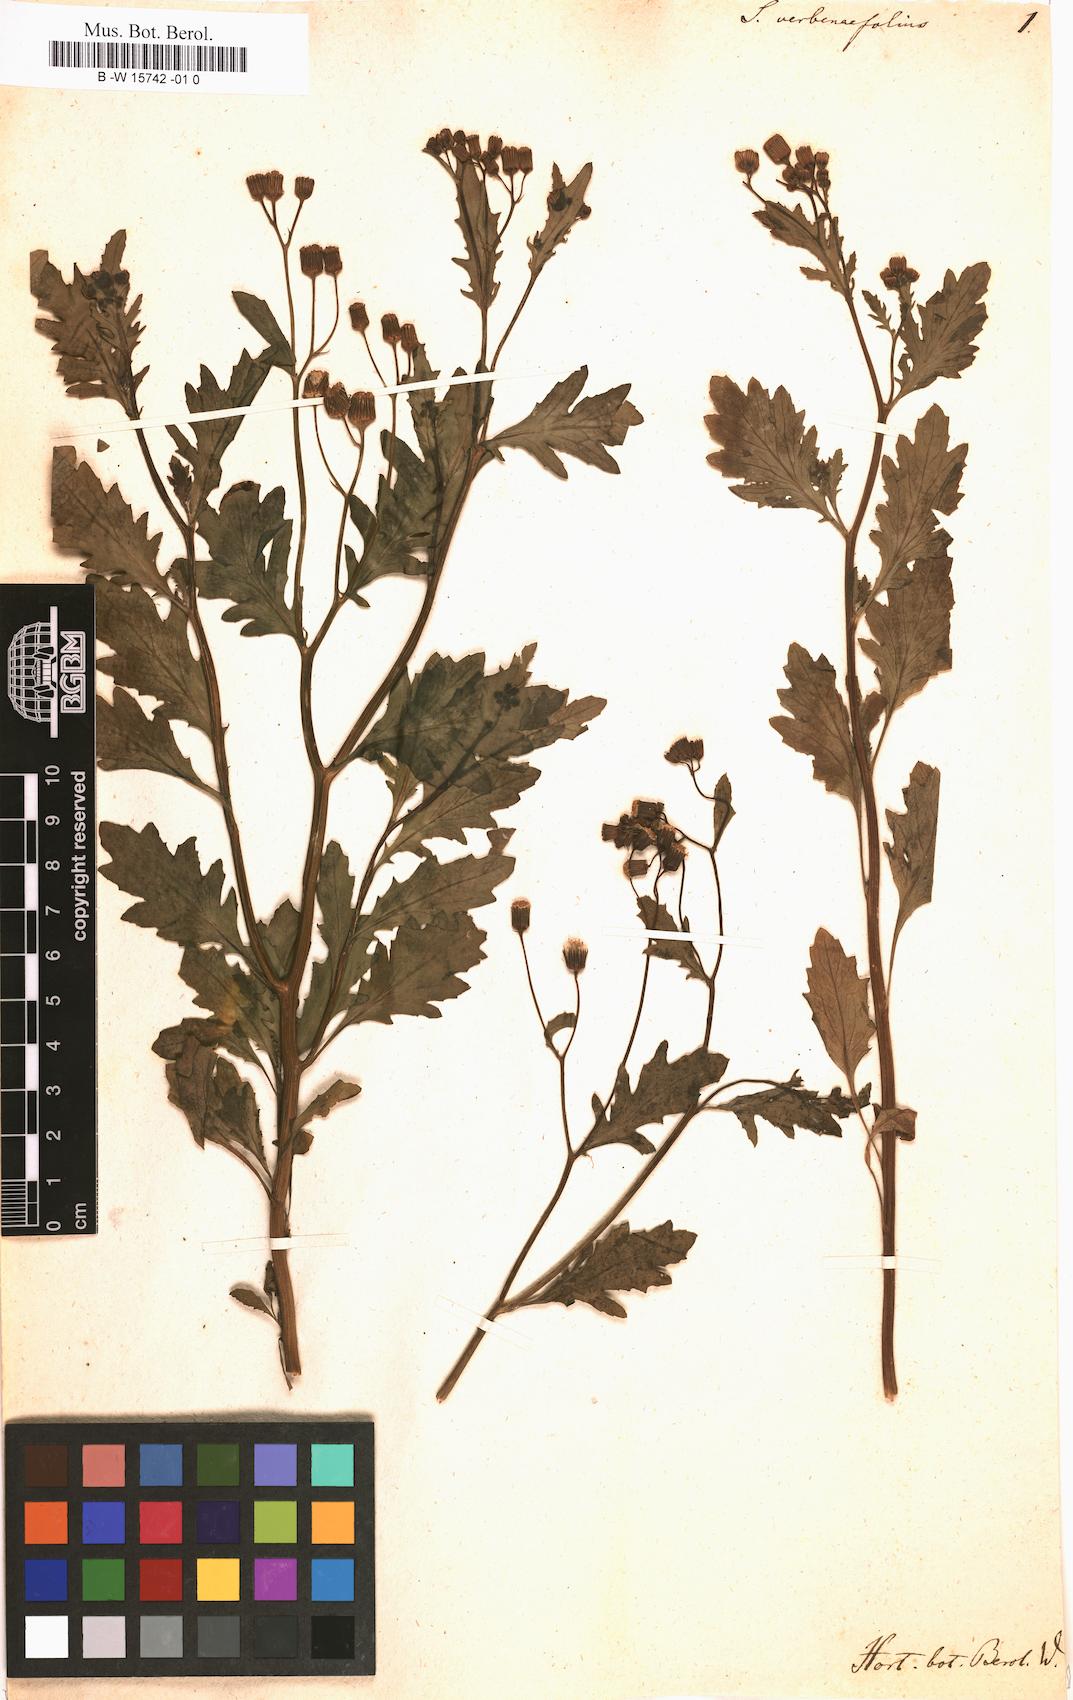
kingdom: Plantae
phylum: Tracheophyta
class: Magnoliopsida
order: Asterales
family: Asteraceae
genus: Senecio
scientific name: Senecio aegyptius
